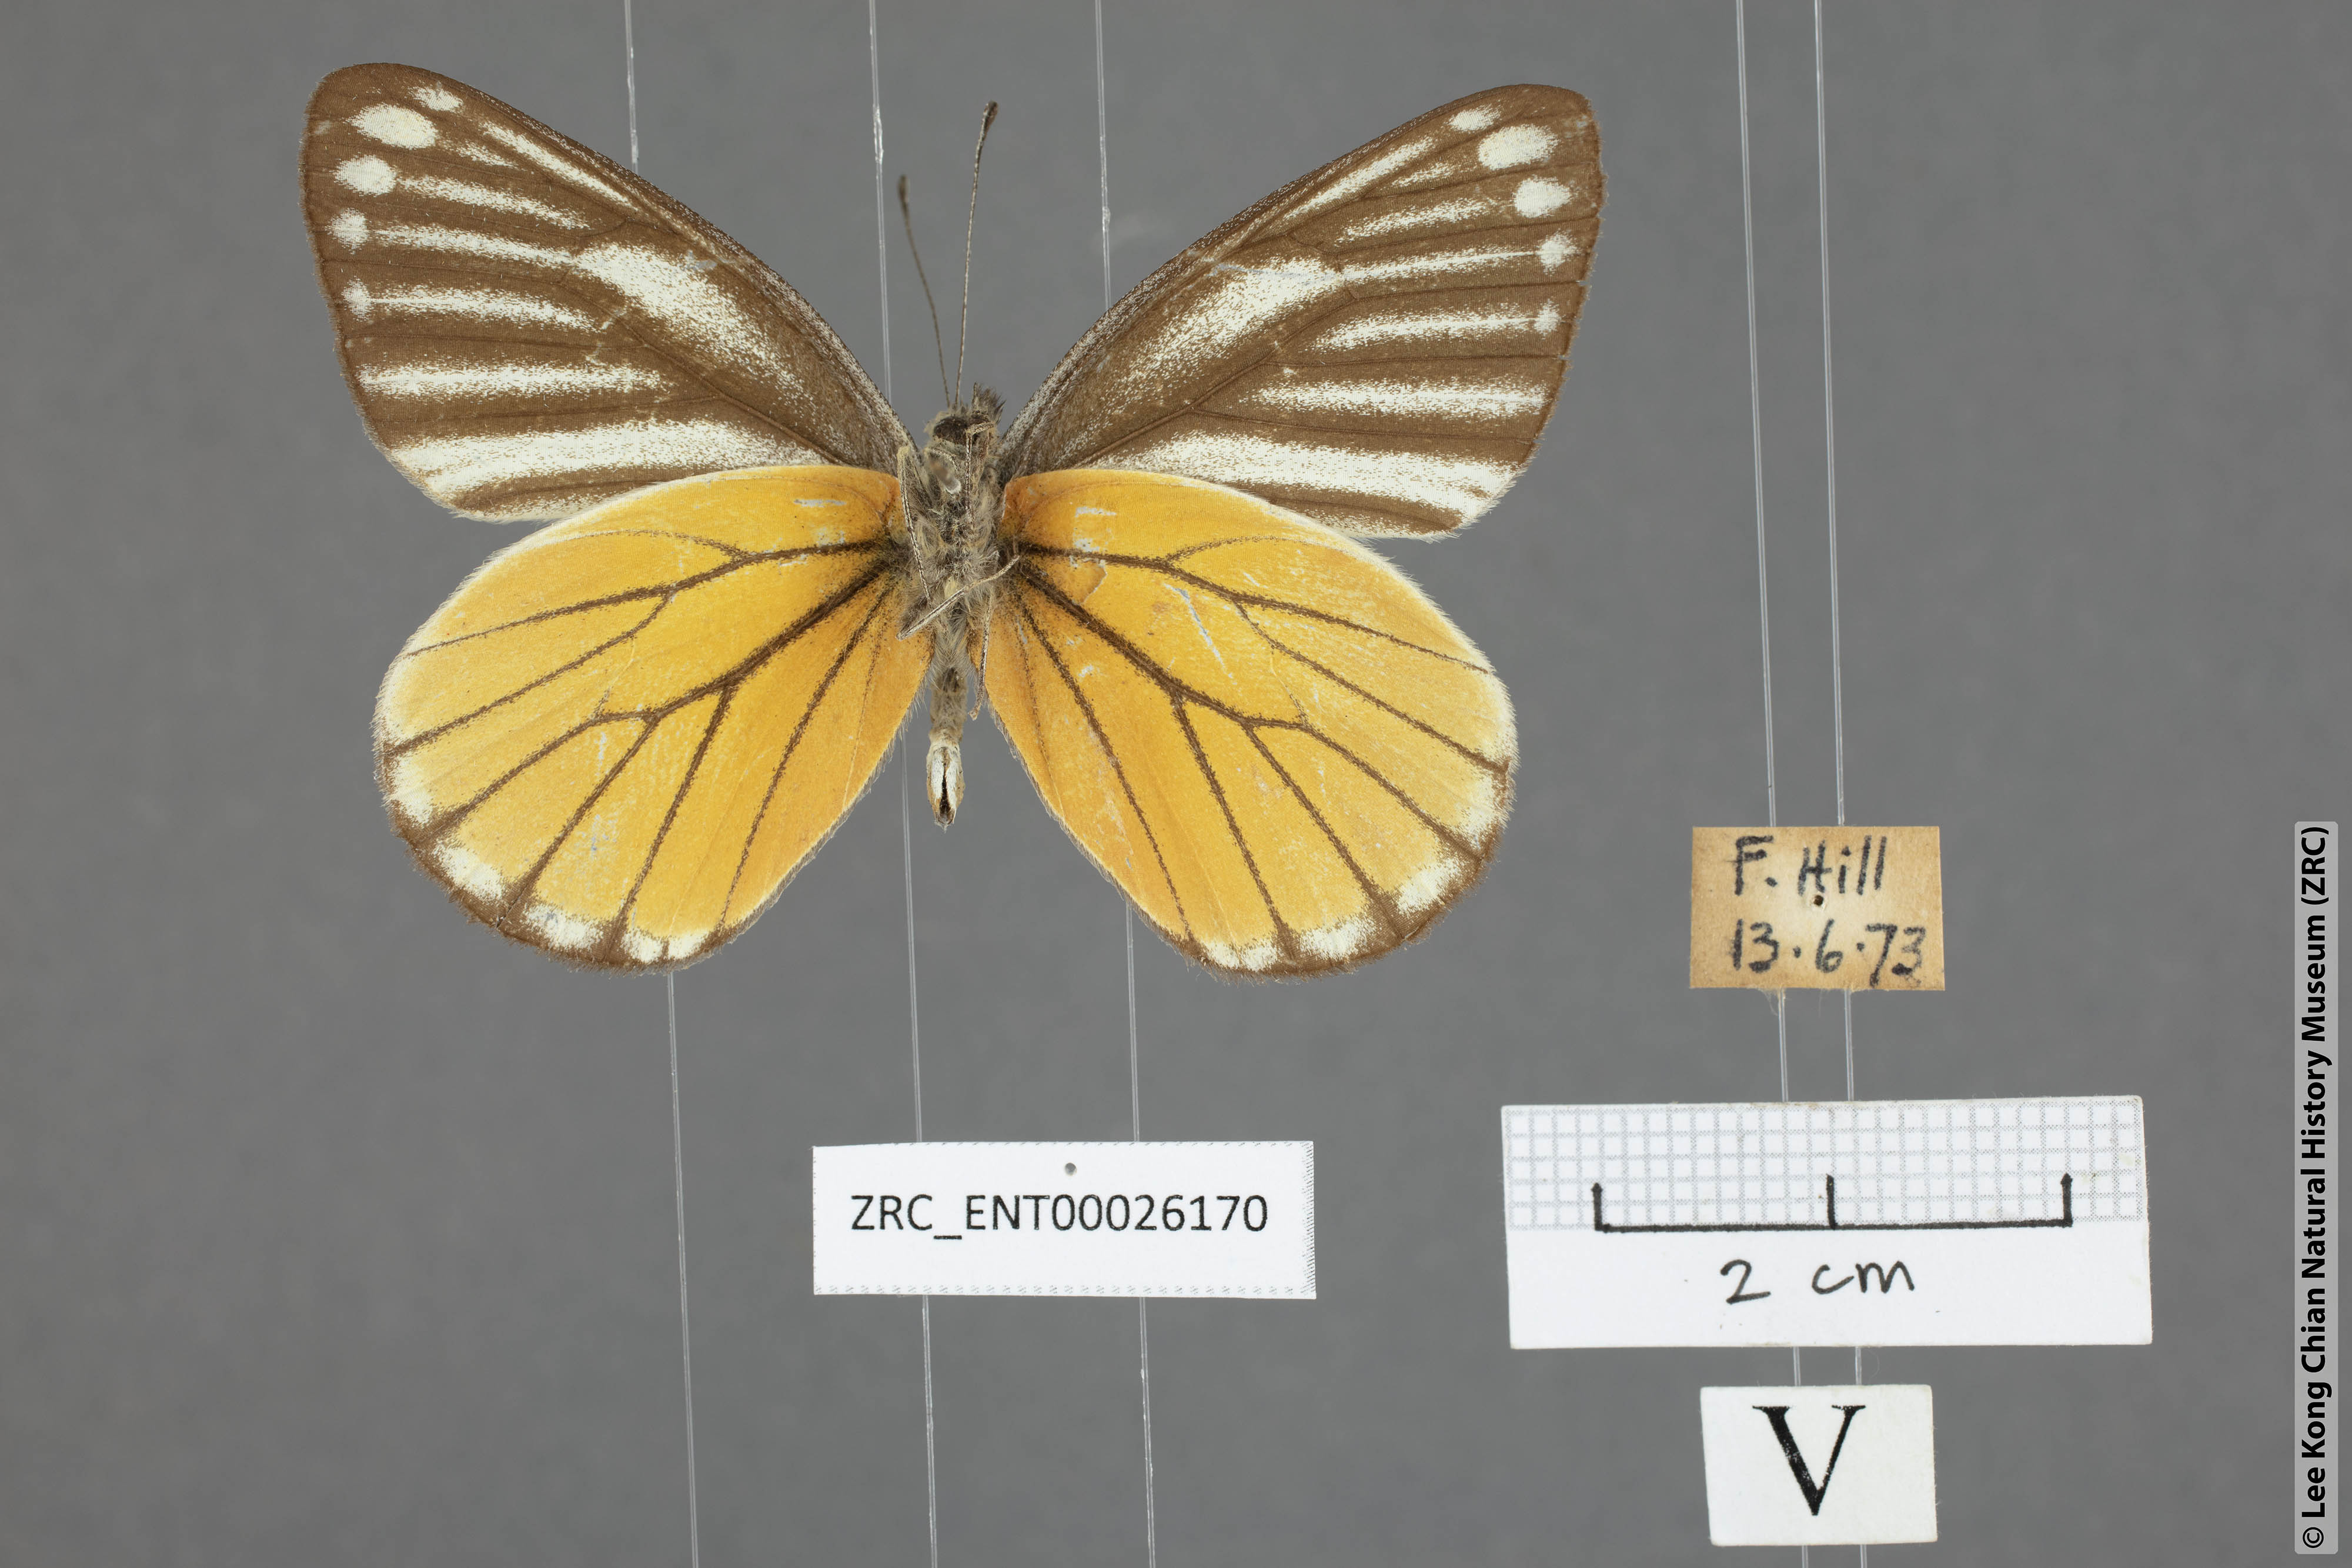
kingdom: Animalia
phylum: Arthropoda
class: Insecta
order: Lepidoptera
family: Pieridae
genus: Delias
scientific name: Delias baracasa
